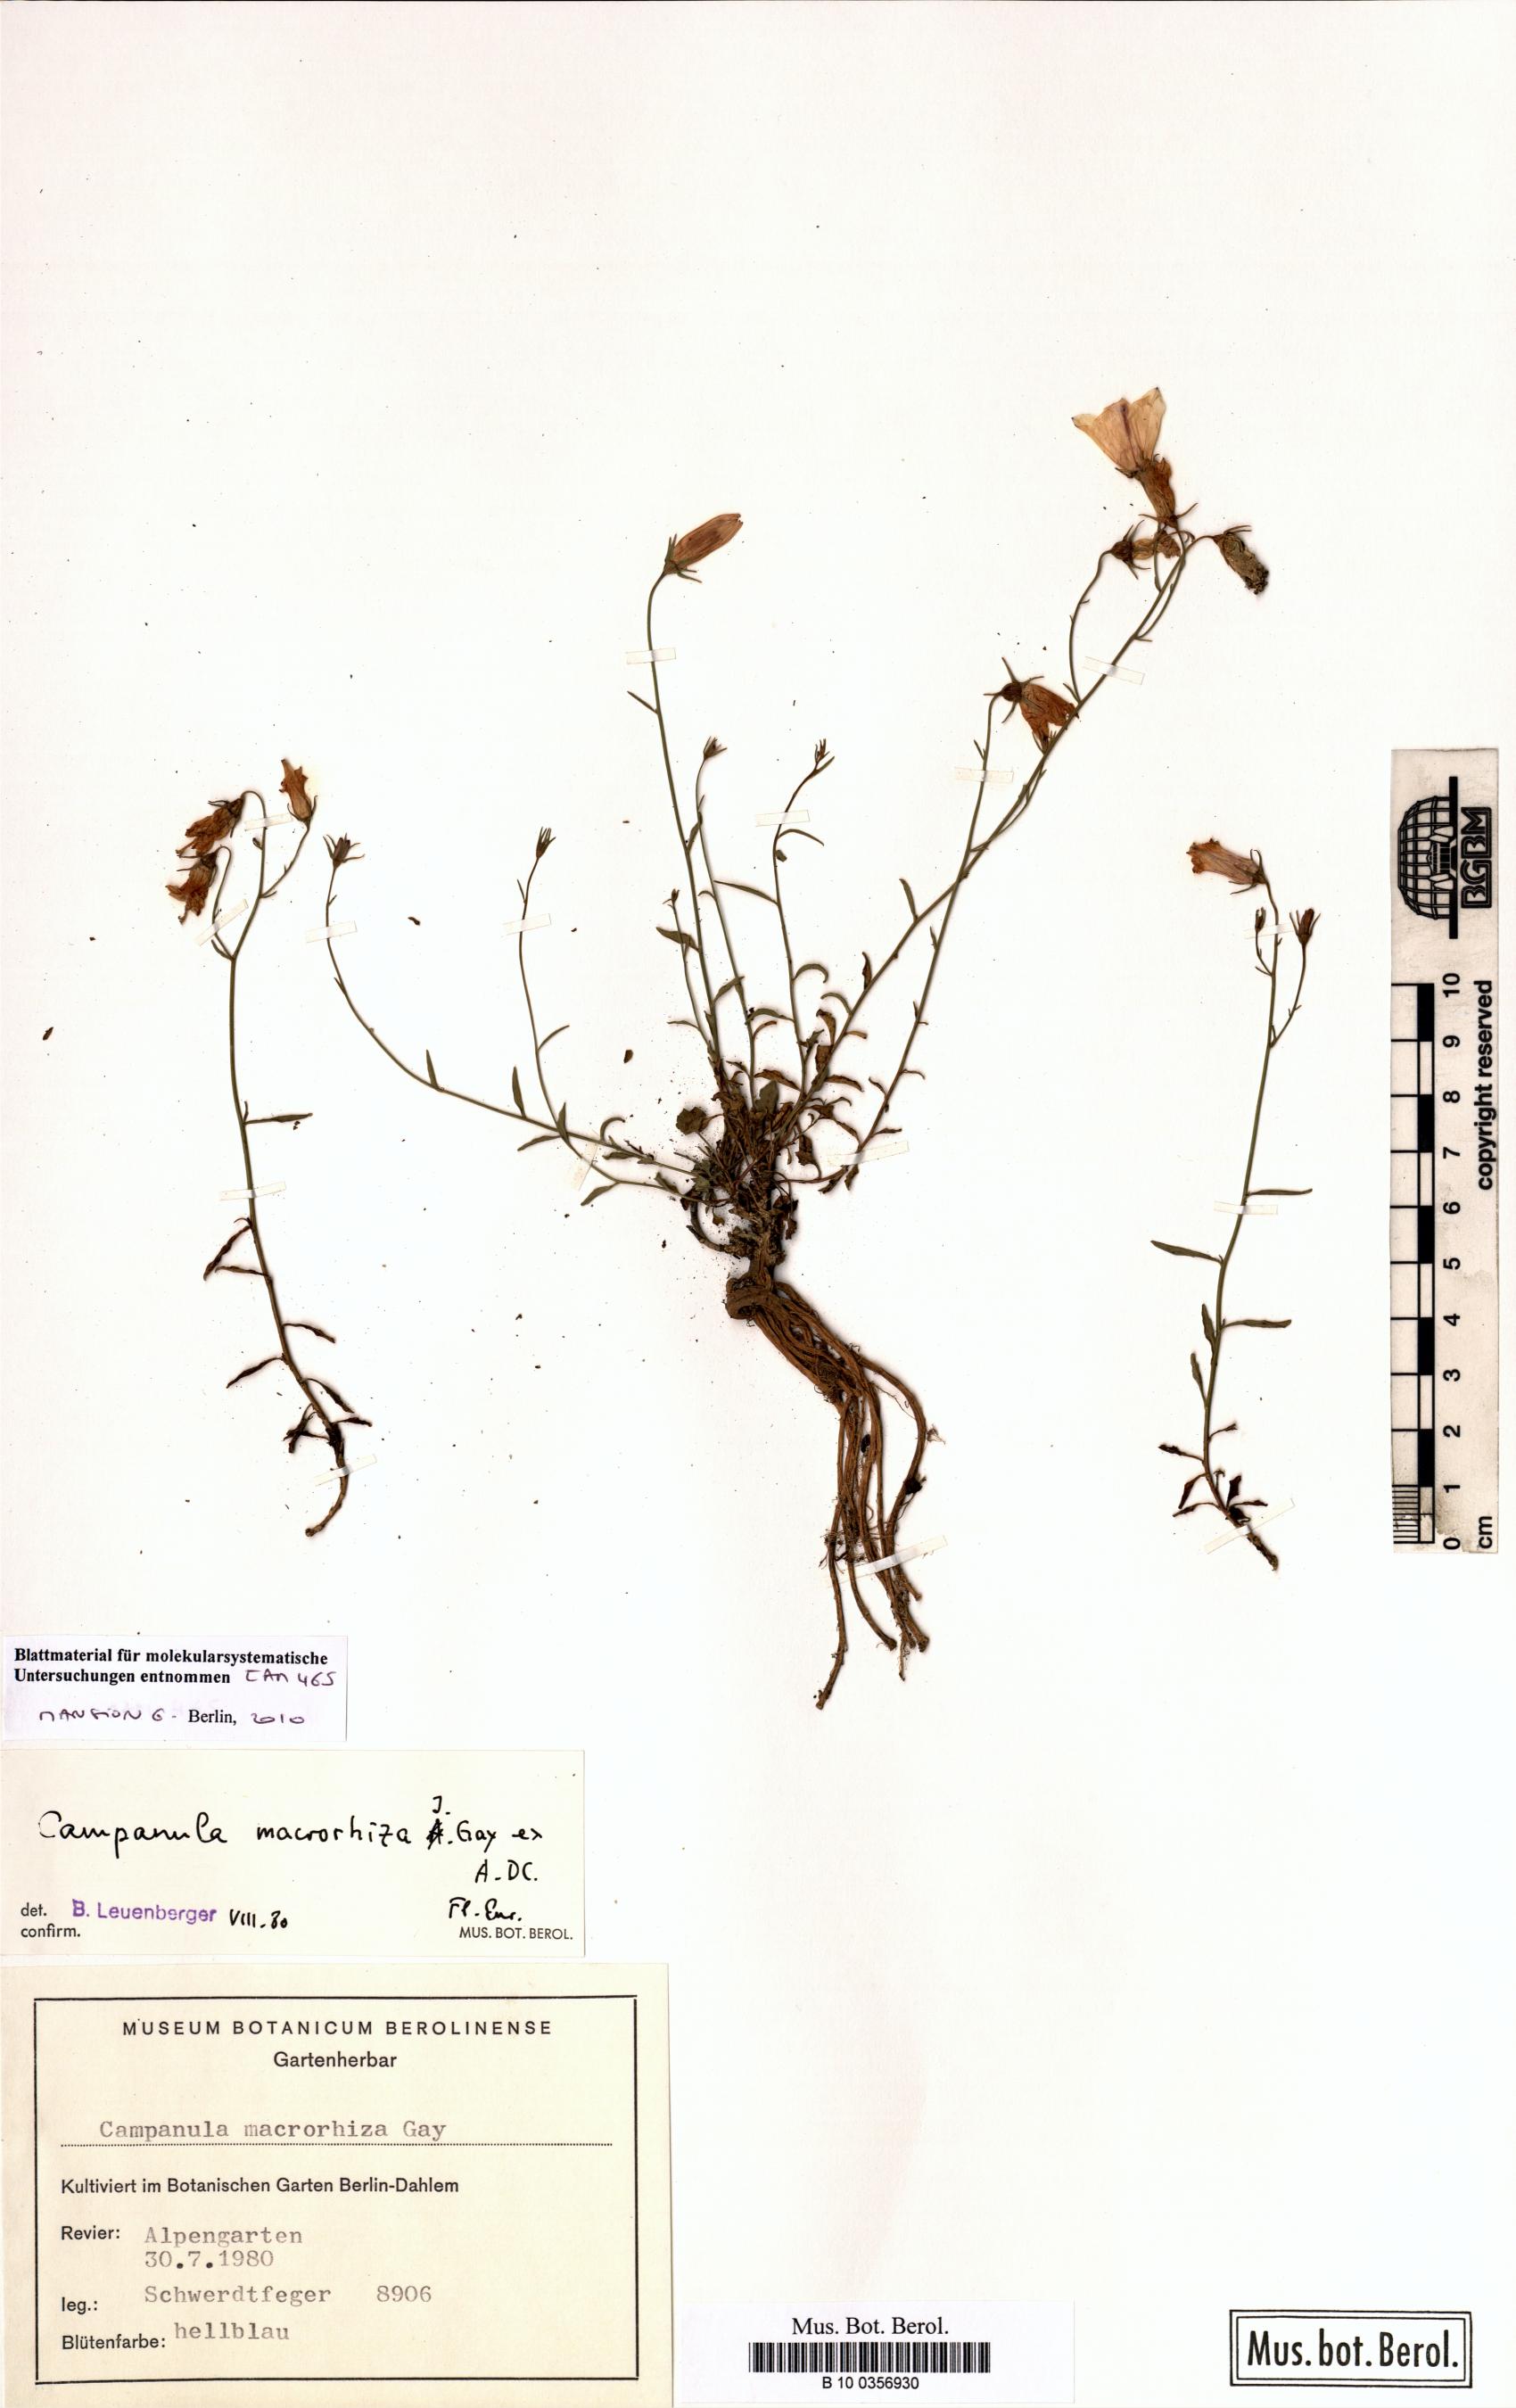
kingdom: Plantae
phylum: Tracheophyta
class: Magnoliopsida
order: Asterales
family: Campanulaceae
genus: Campanula
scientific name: Campanula macrorhiza
